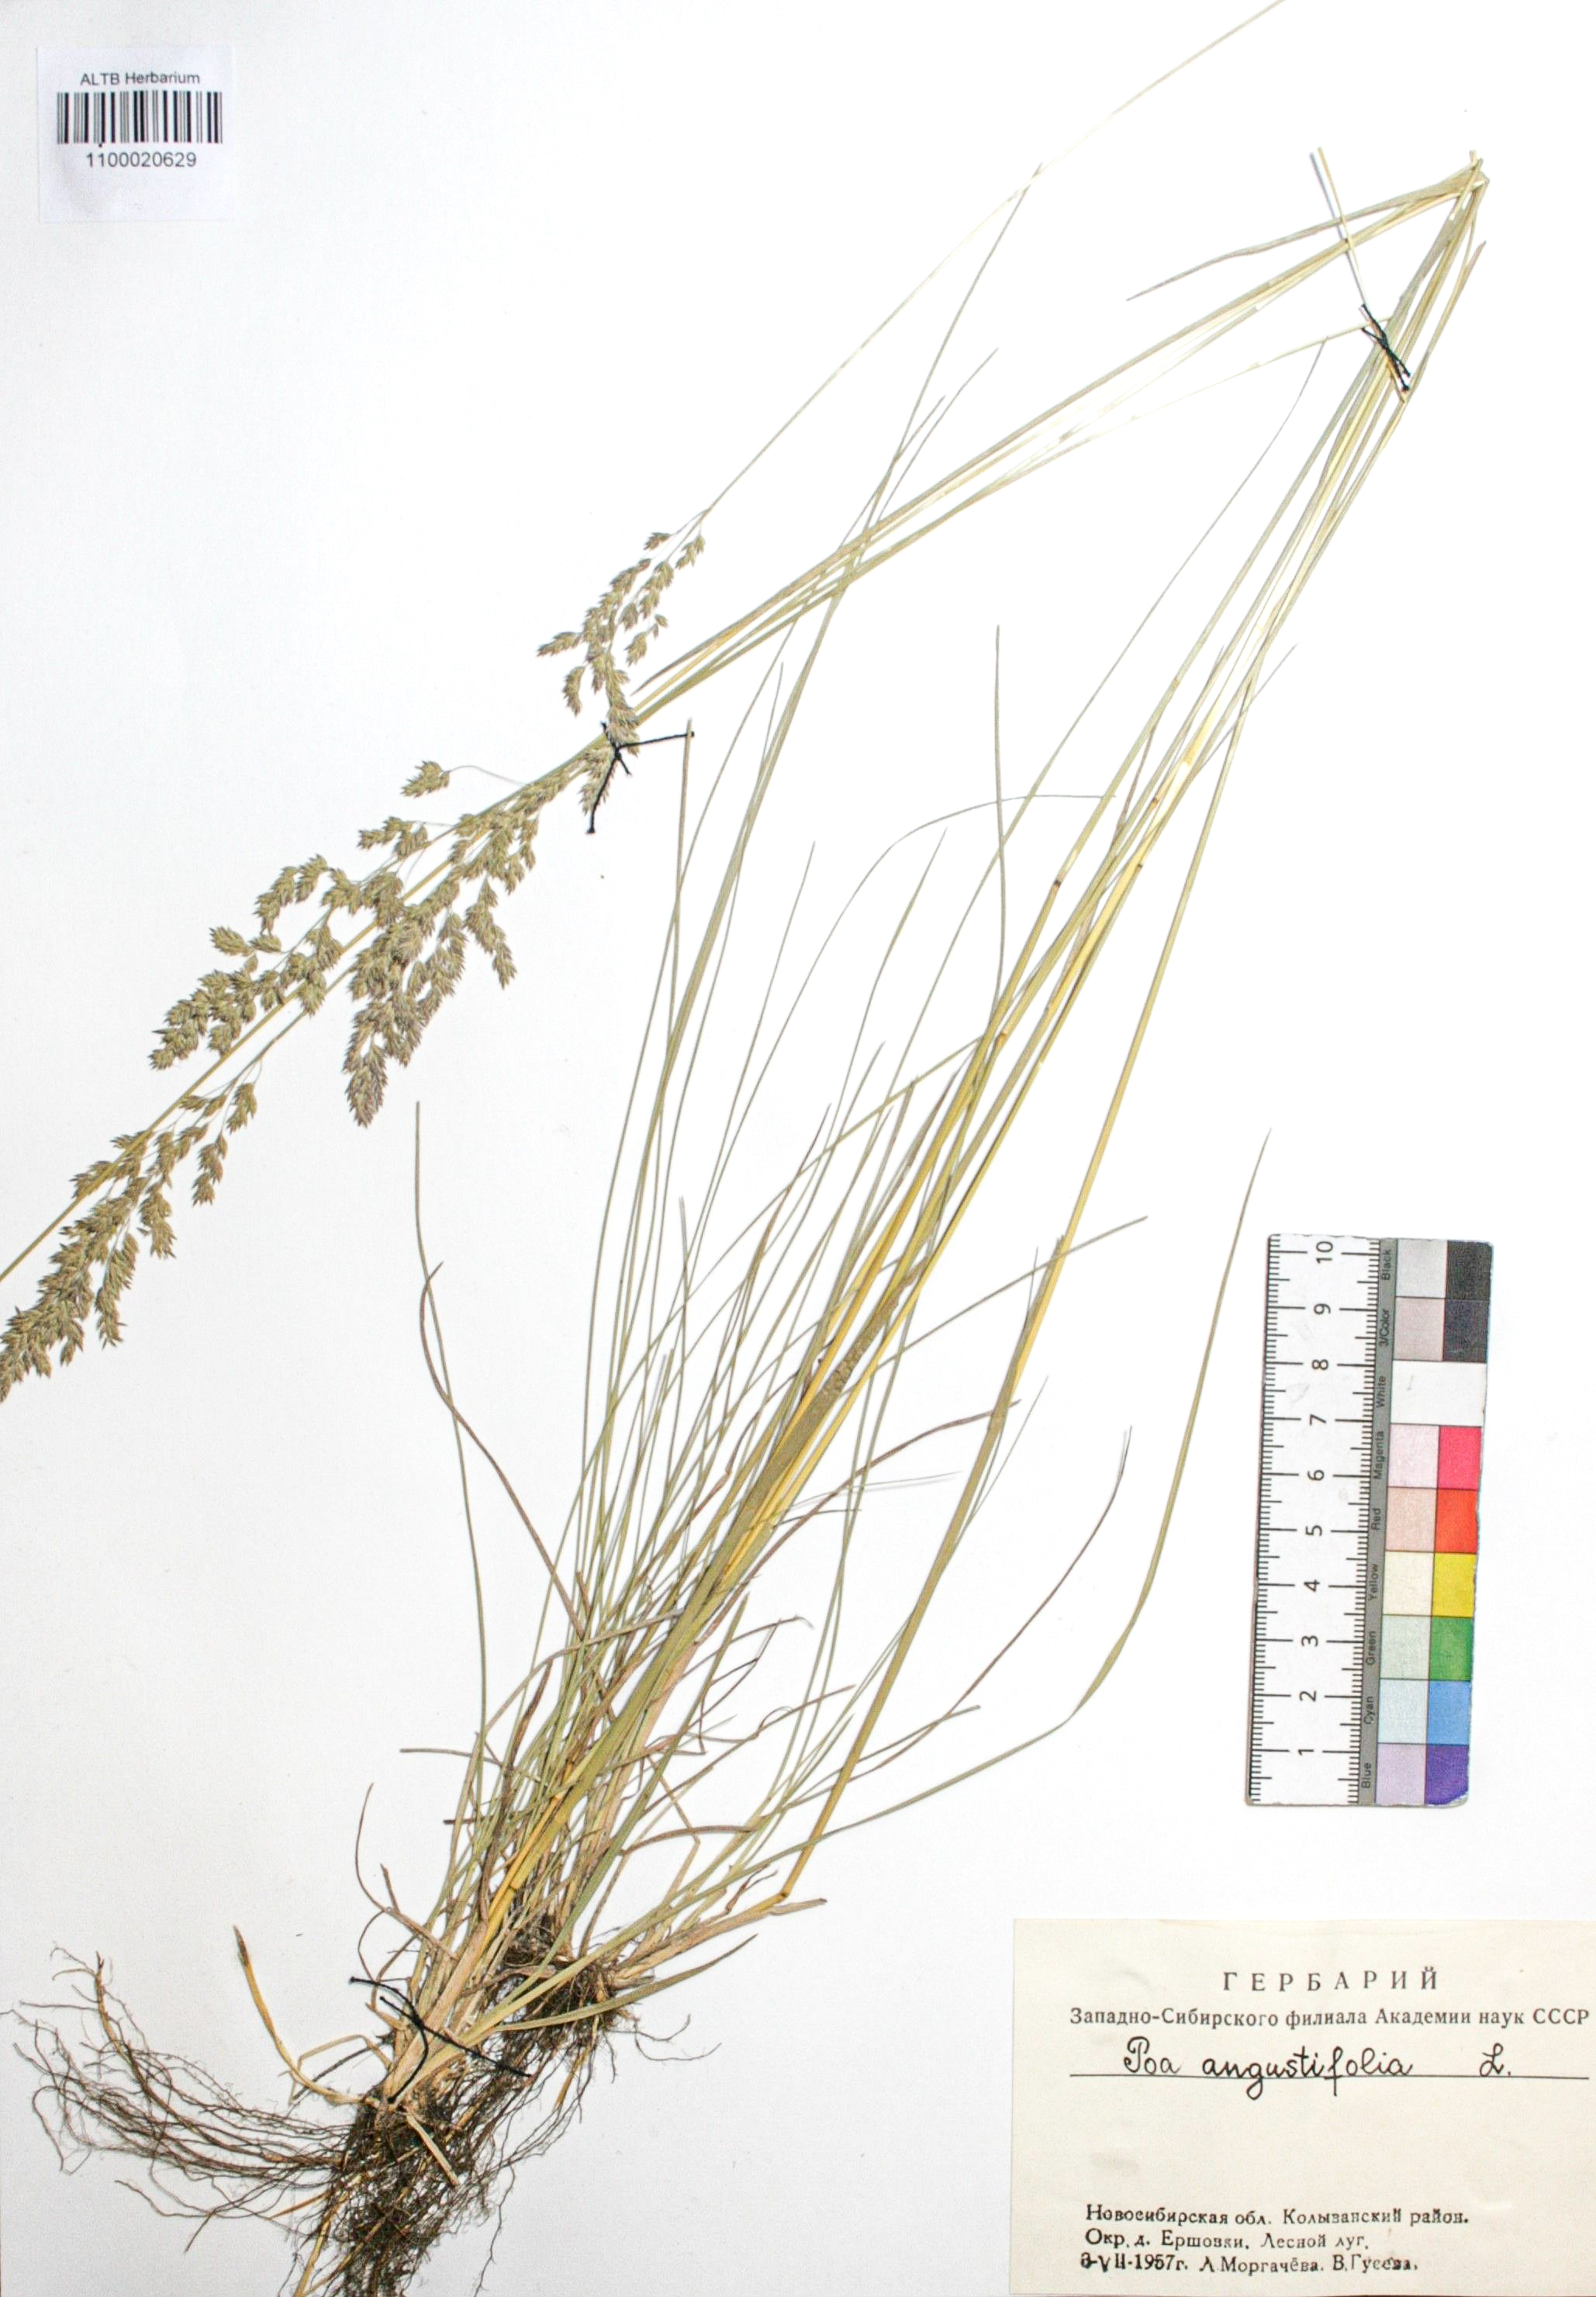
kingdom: Plantae
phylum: Tracheophyta
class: Liliopsida
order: Poales
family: Poaceae
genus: Poa
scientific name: Poa angustifolia
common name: Narrow-leaved meadow-grass
